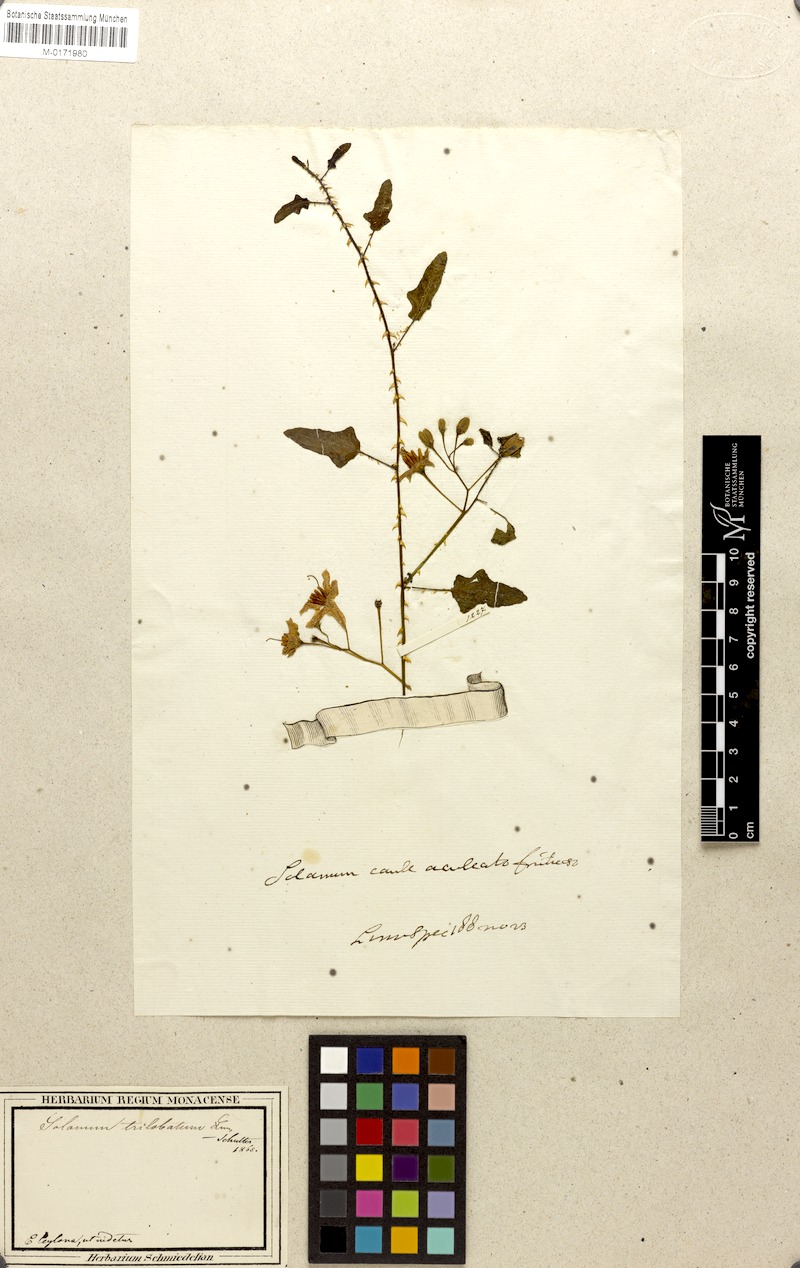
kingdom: Plantae
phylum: Tracheophyta
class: Magnoliopsida
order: Solanales
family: Solanaceae
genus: Solanum
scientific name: Solanum trilobatum
